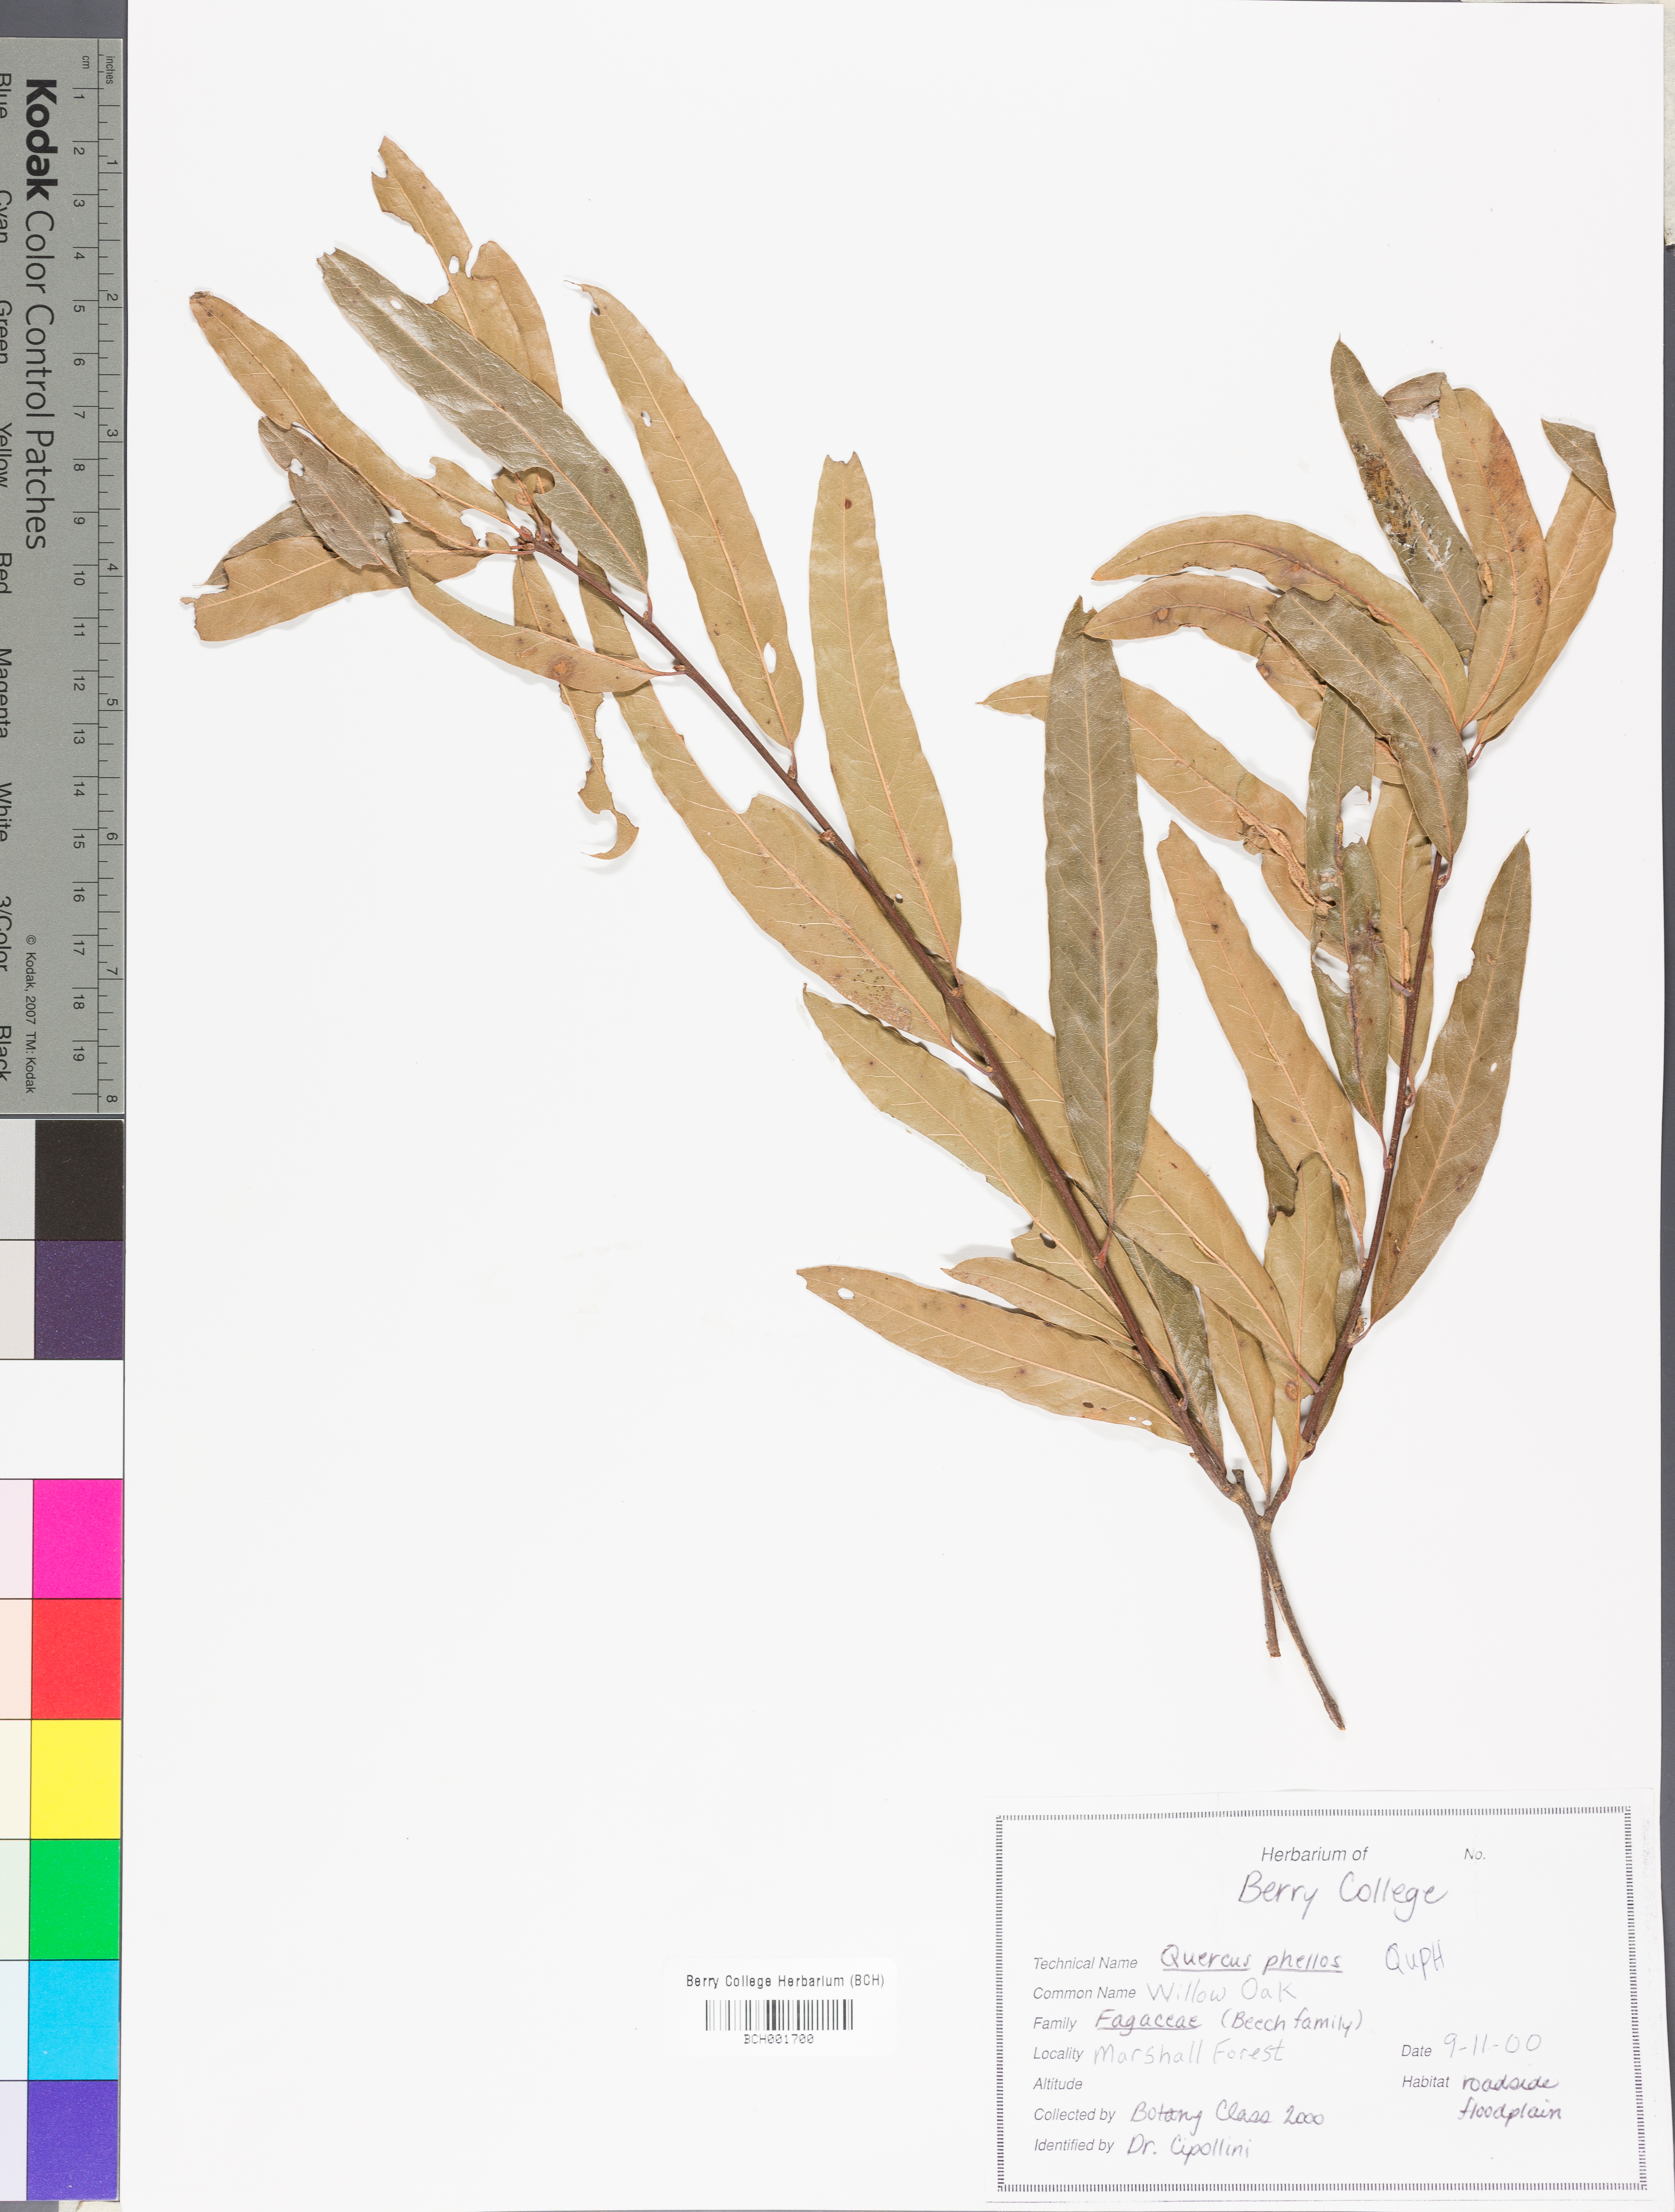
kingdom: Plantae
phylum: Tracheophyta
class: Magnoliopsida
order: Fagales
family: Fagaceae
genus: Quercus
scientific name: Quercus phellos
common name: Willow oak
